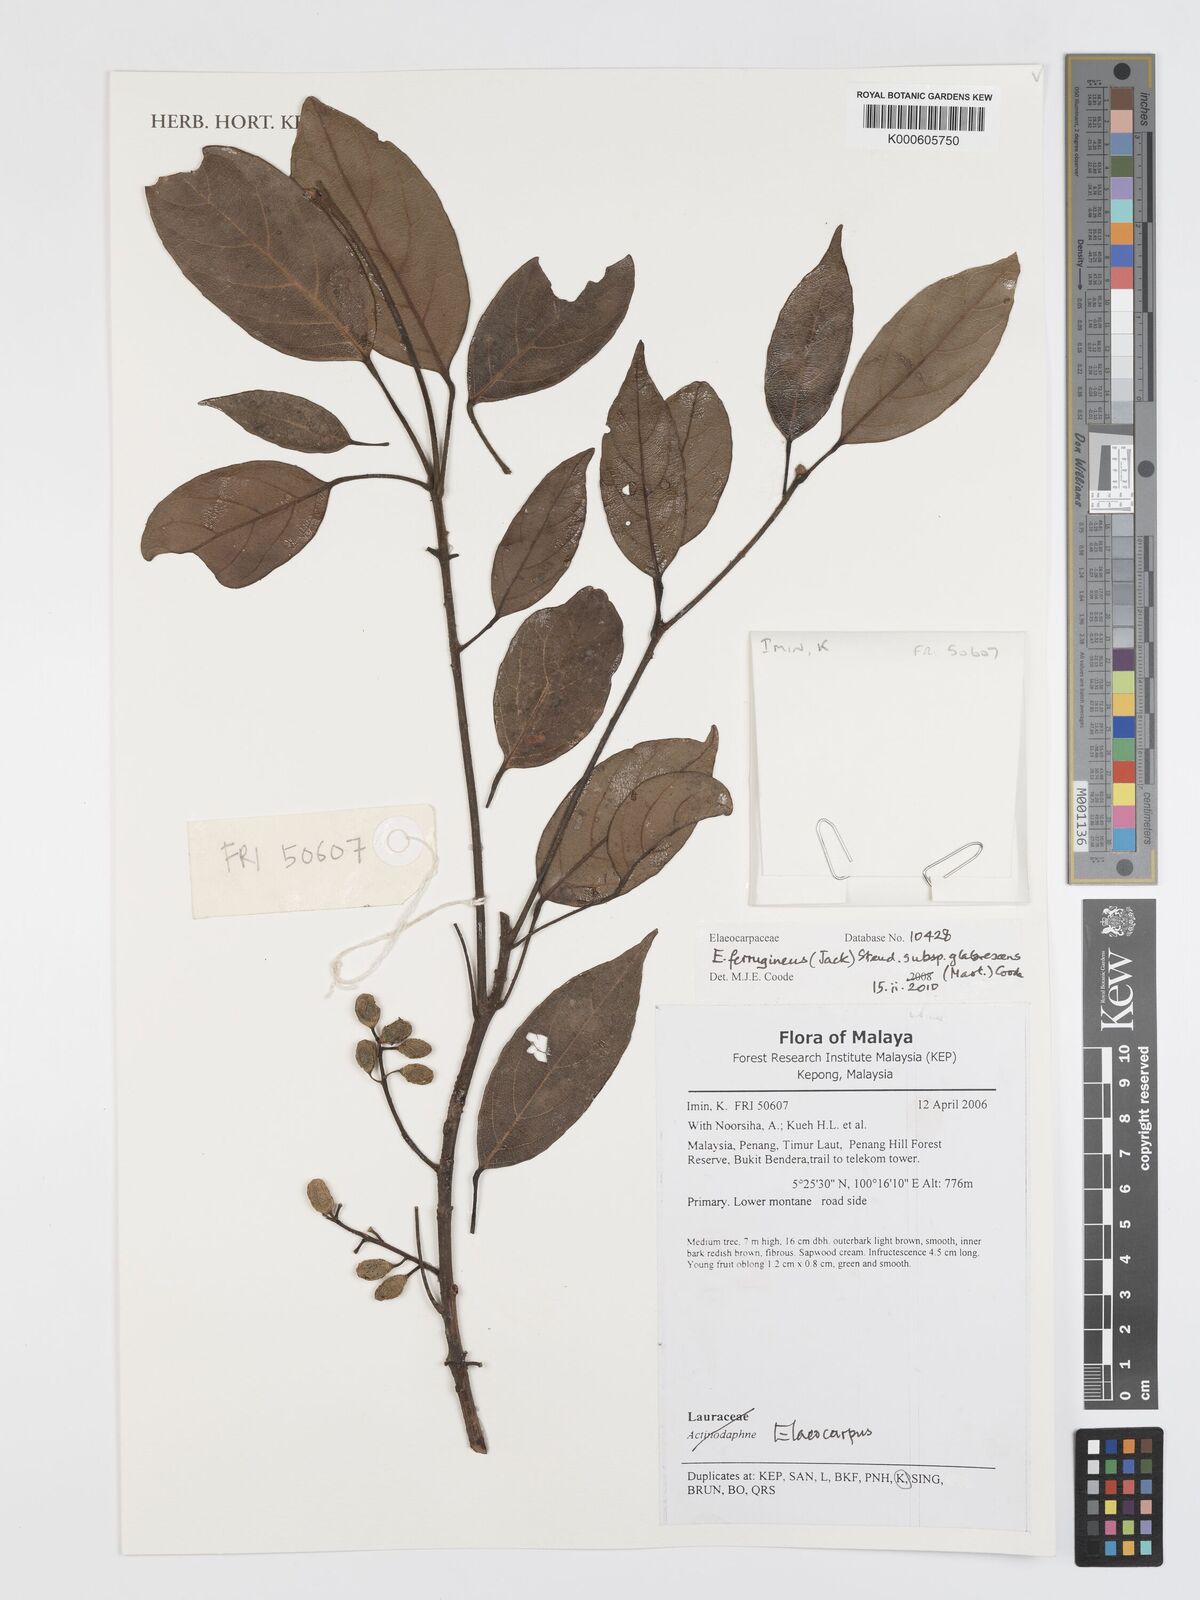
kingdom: Plantae
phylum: Tracheophyta
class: Magnoliopsida
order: Oxalidales
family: Elaeocarpaceae
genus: Elaeocarpus
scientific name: Elaeocarpus ferrugineus
